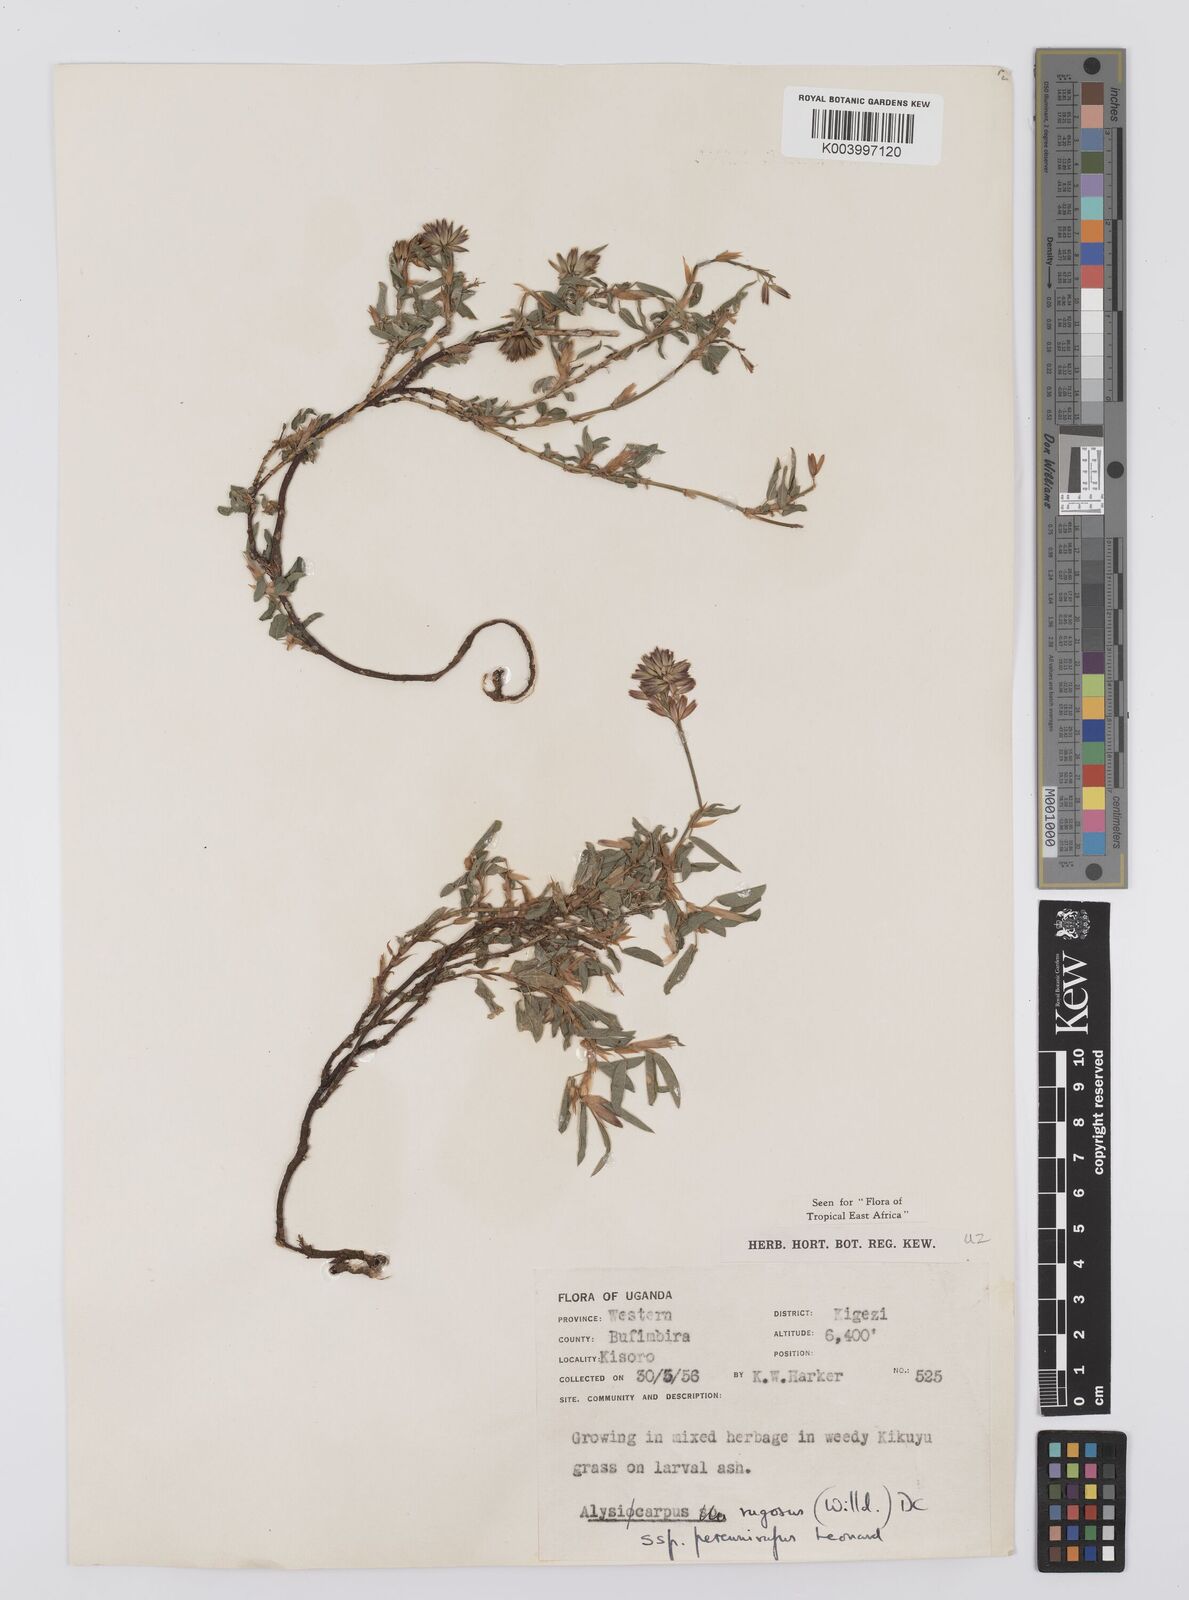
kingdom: Plantae
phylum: Tracheophyta
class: Magnoliopsida
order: Fabales
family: Fabaceae
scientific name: Fabaceae
